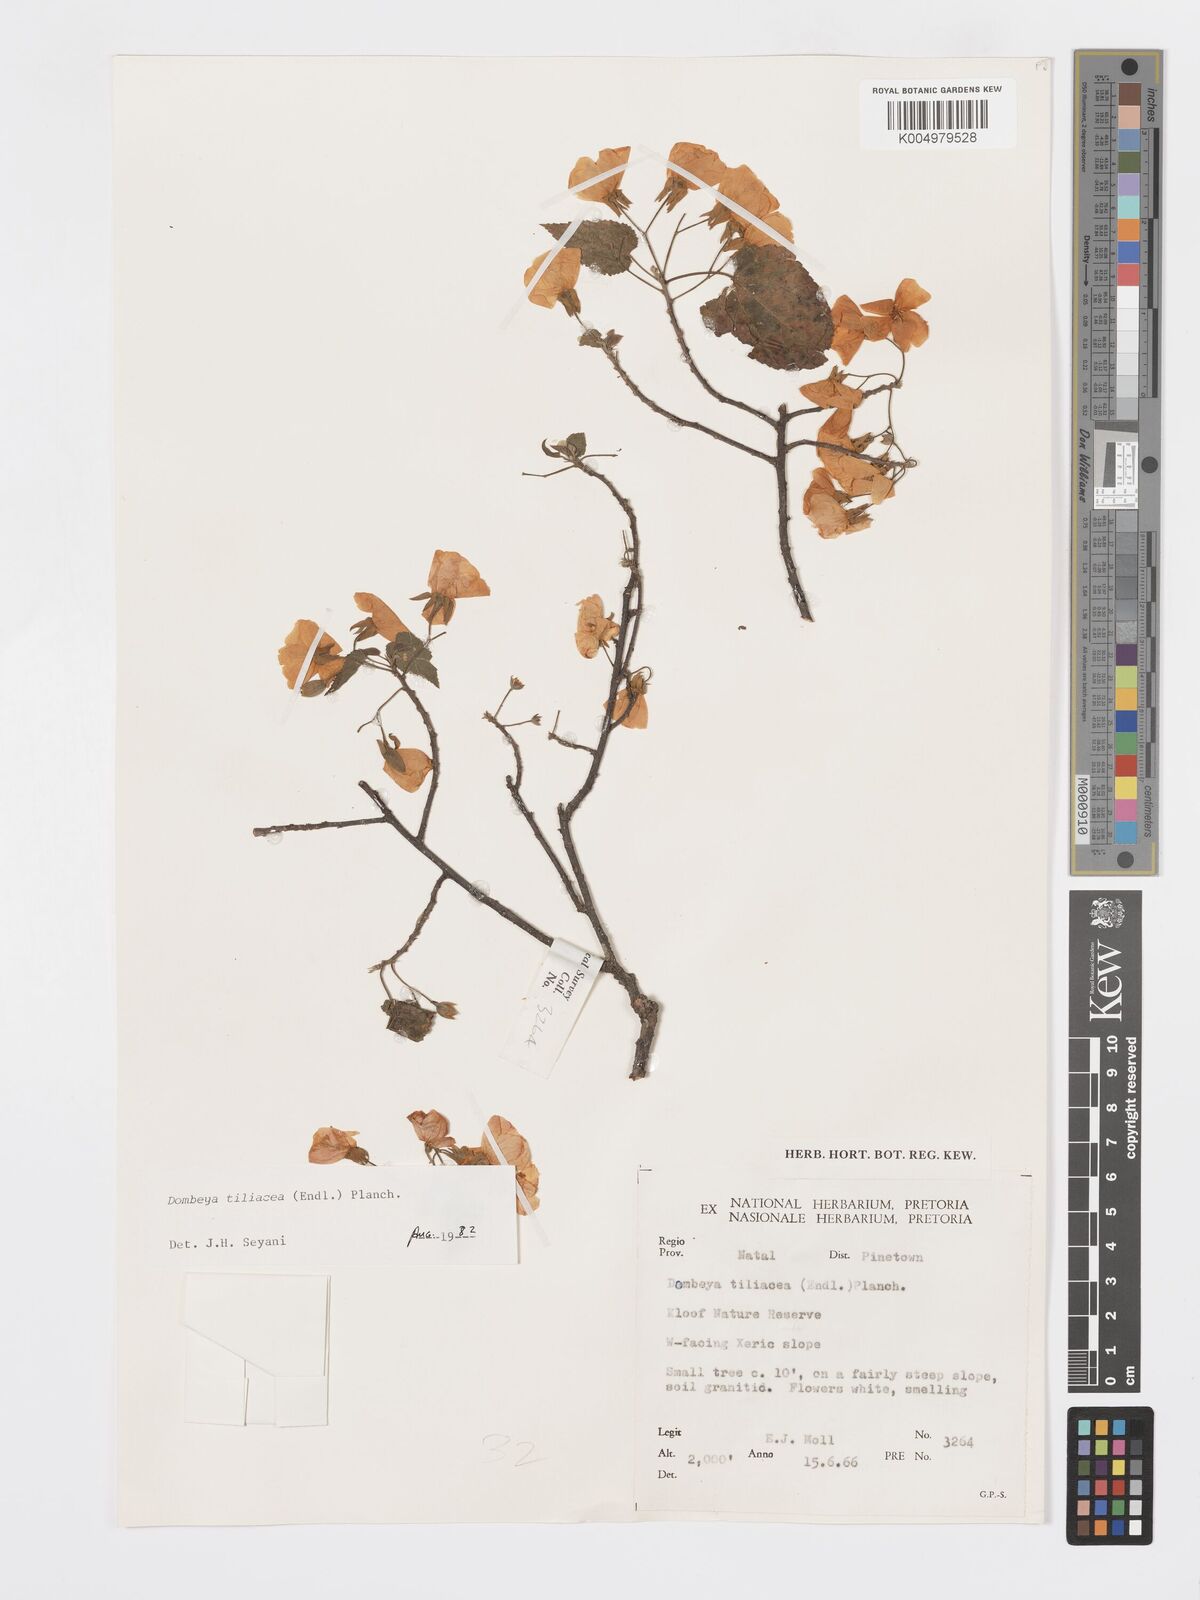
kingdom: Plantae
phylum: Tracheophyta
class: Magnoliopsida
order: Malvales
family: Malvaceae
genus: Dombeya
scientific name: Dombeya tiliacea
